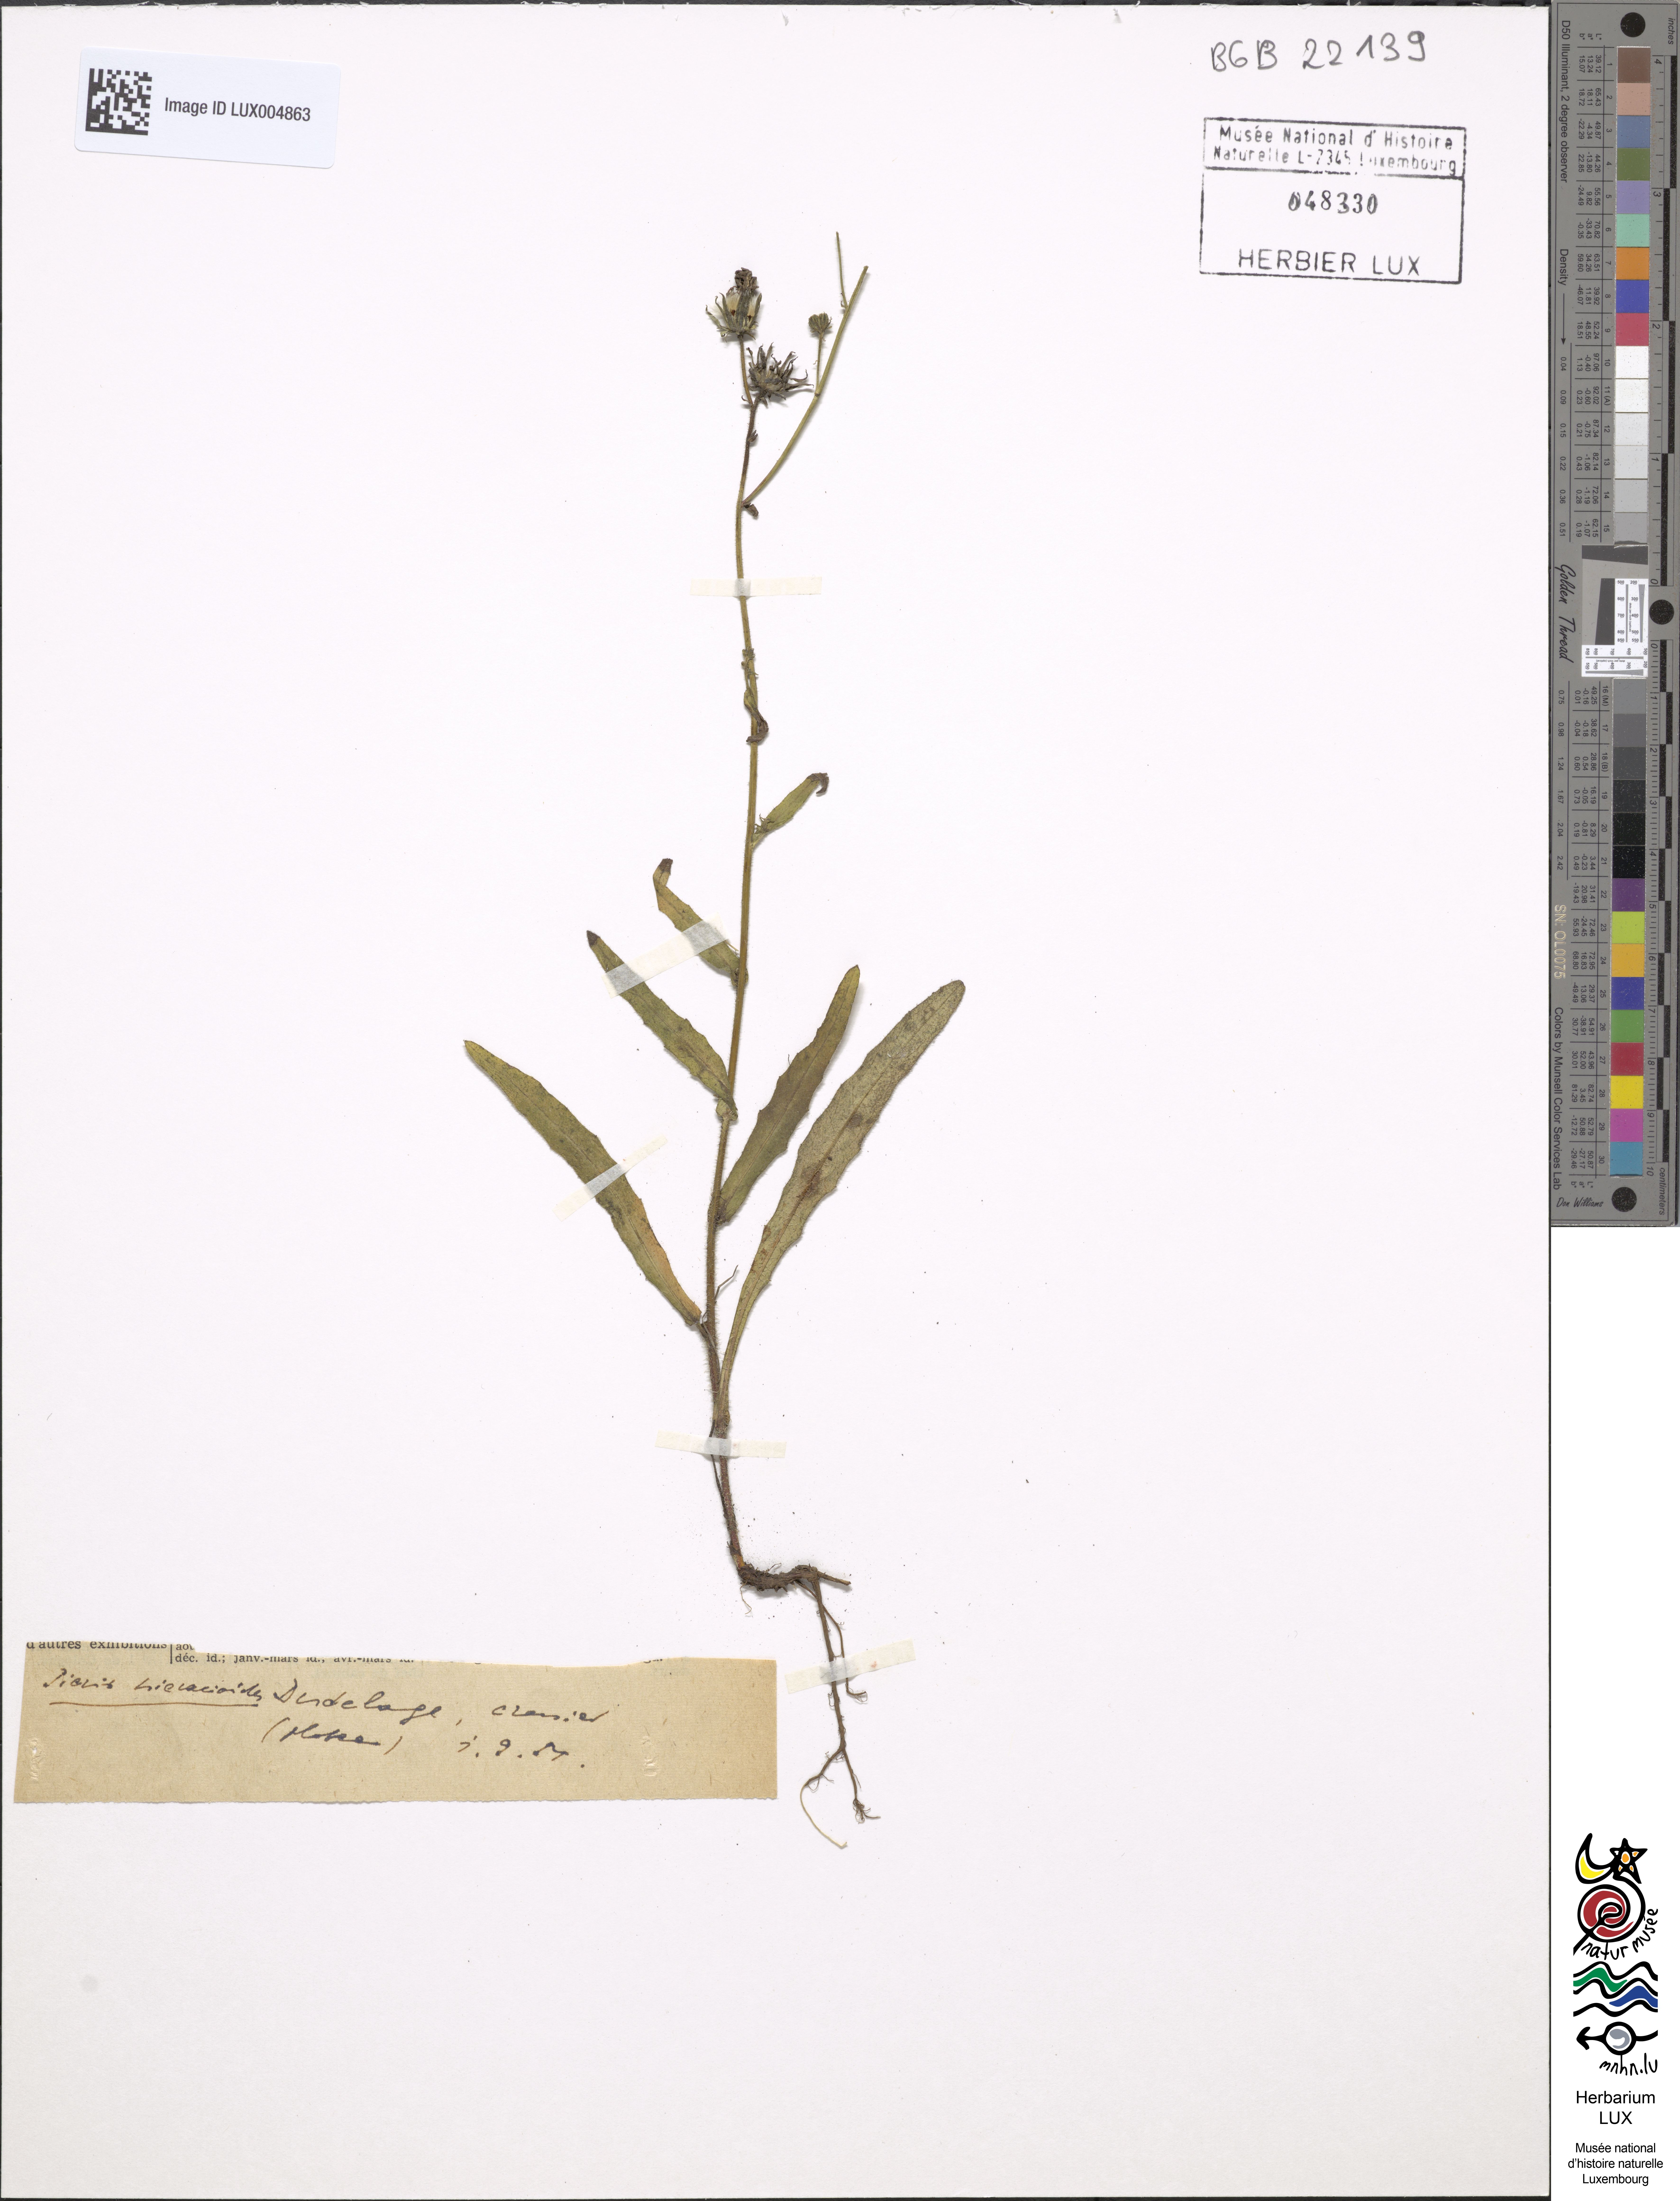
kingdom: Plantae
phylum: Tracheophyta
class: Magnoliopsida
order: Asterales
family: Asteraceae
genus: Picris
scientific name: Picris hieracioides
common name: Hawkweed oxtongue
